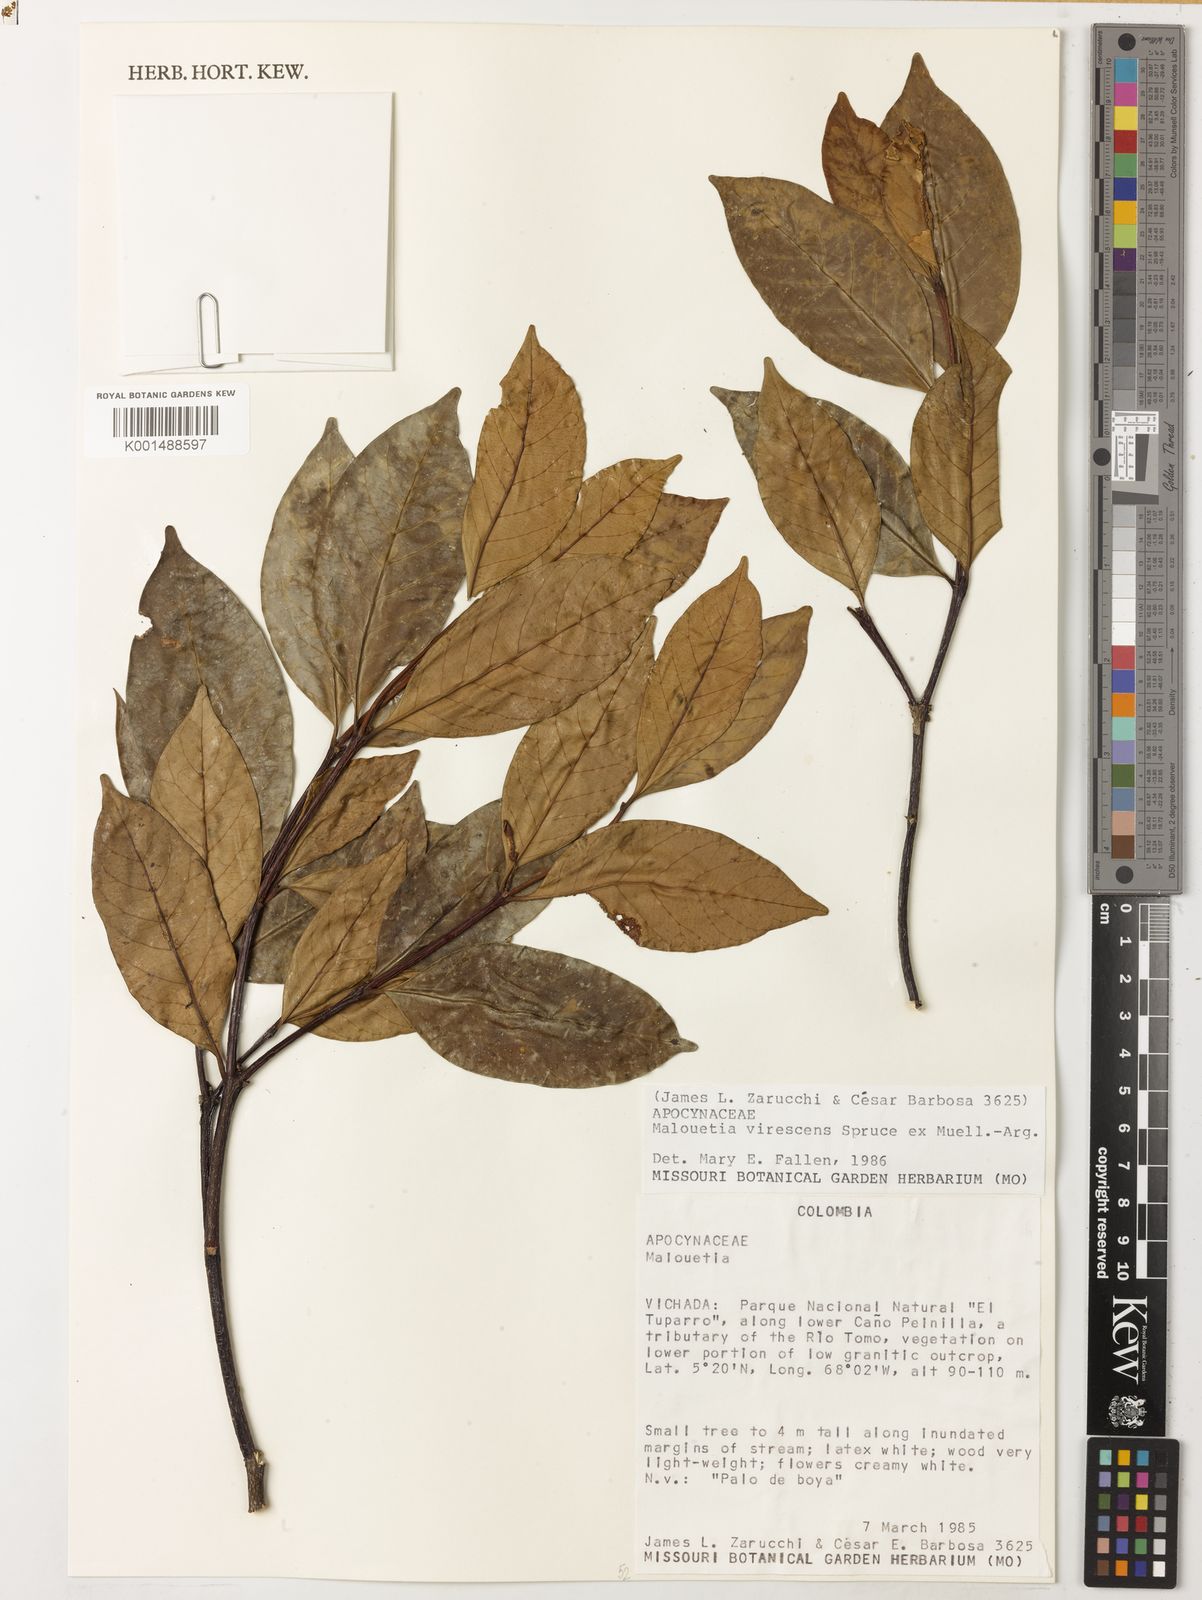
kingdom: Plantae
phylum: Tracheophyta
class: Magnoliopsida
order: Gentianales
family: Apocynaceae
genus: Malouetia
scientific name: Malouetia virescens
